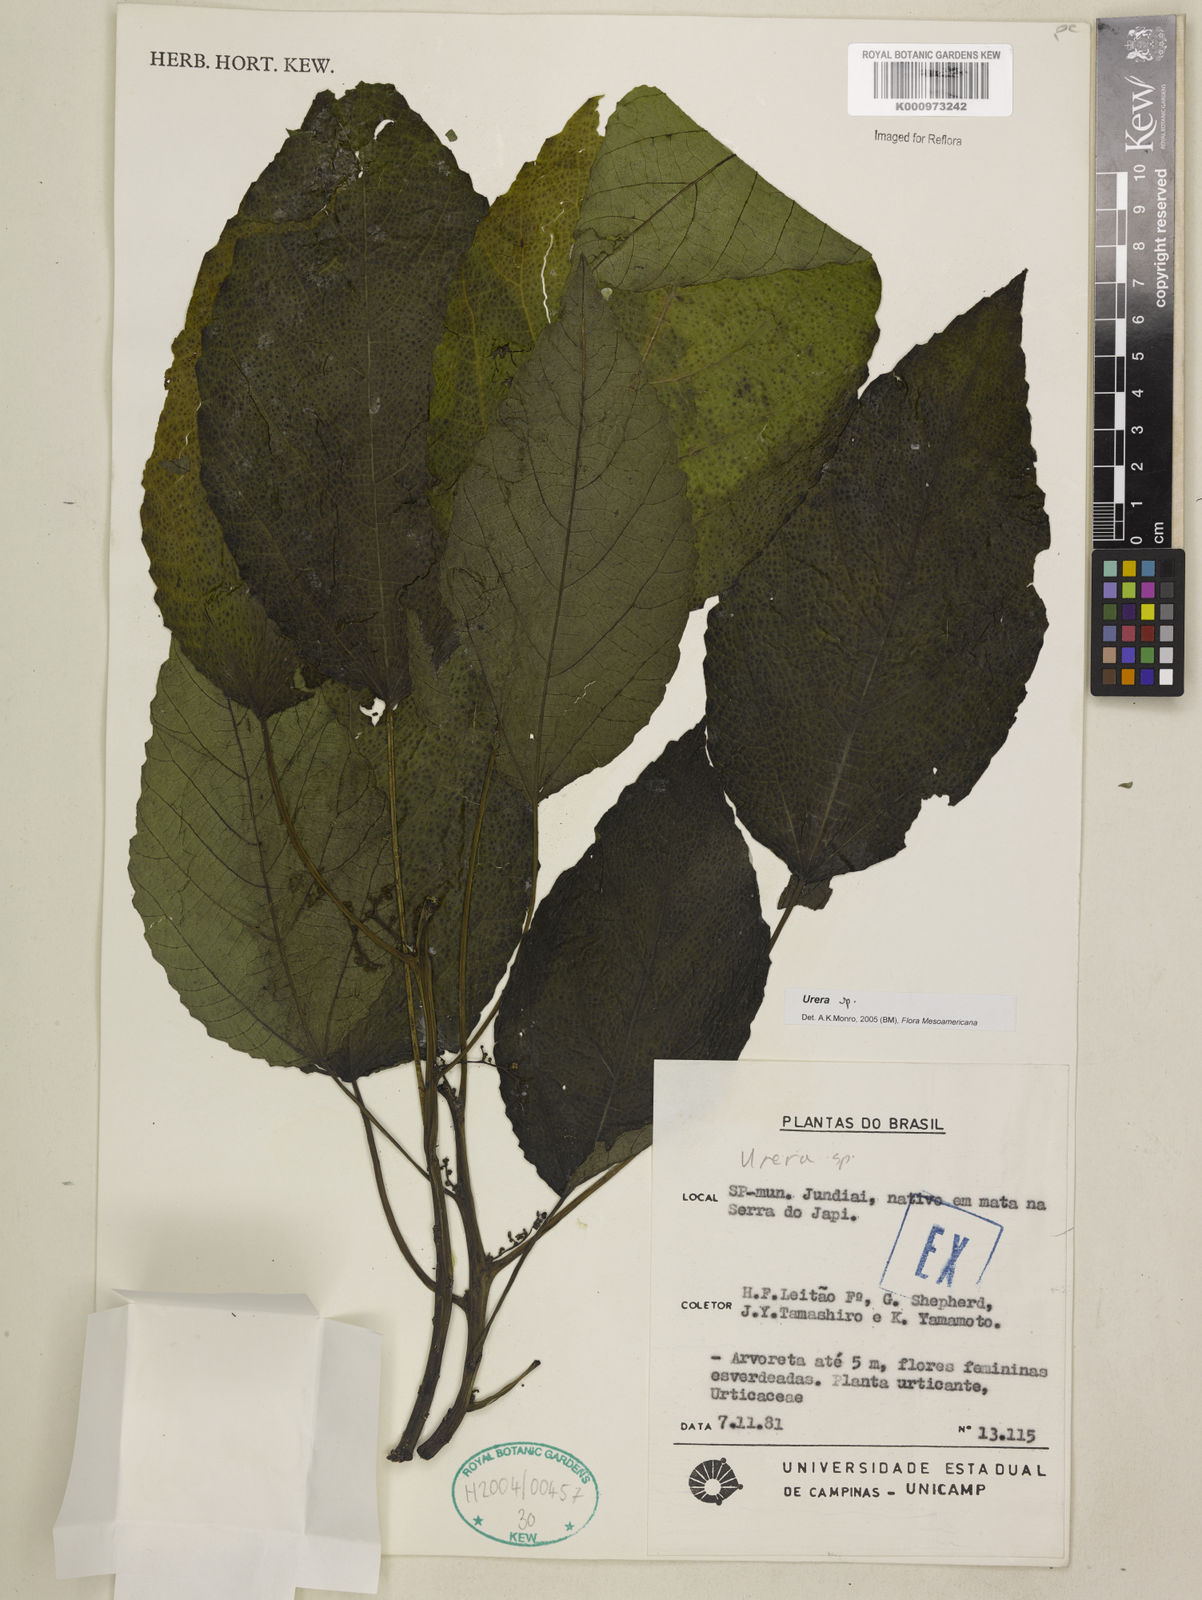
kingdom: Plantae
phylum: Tracheophyta
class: Magnoliopsida
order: Rosales
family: Urticaceae
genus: Urera
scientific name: Urera
